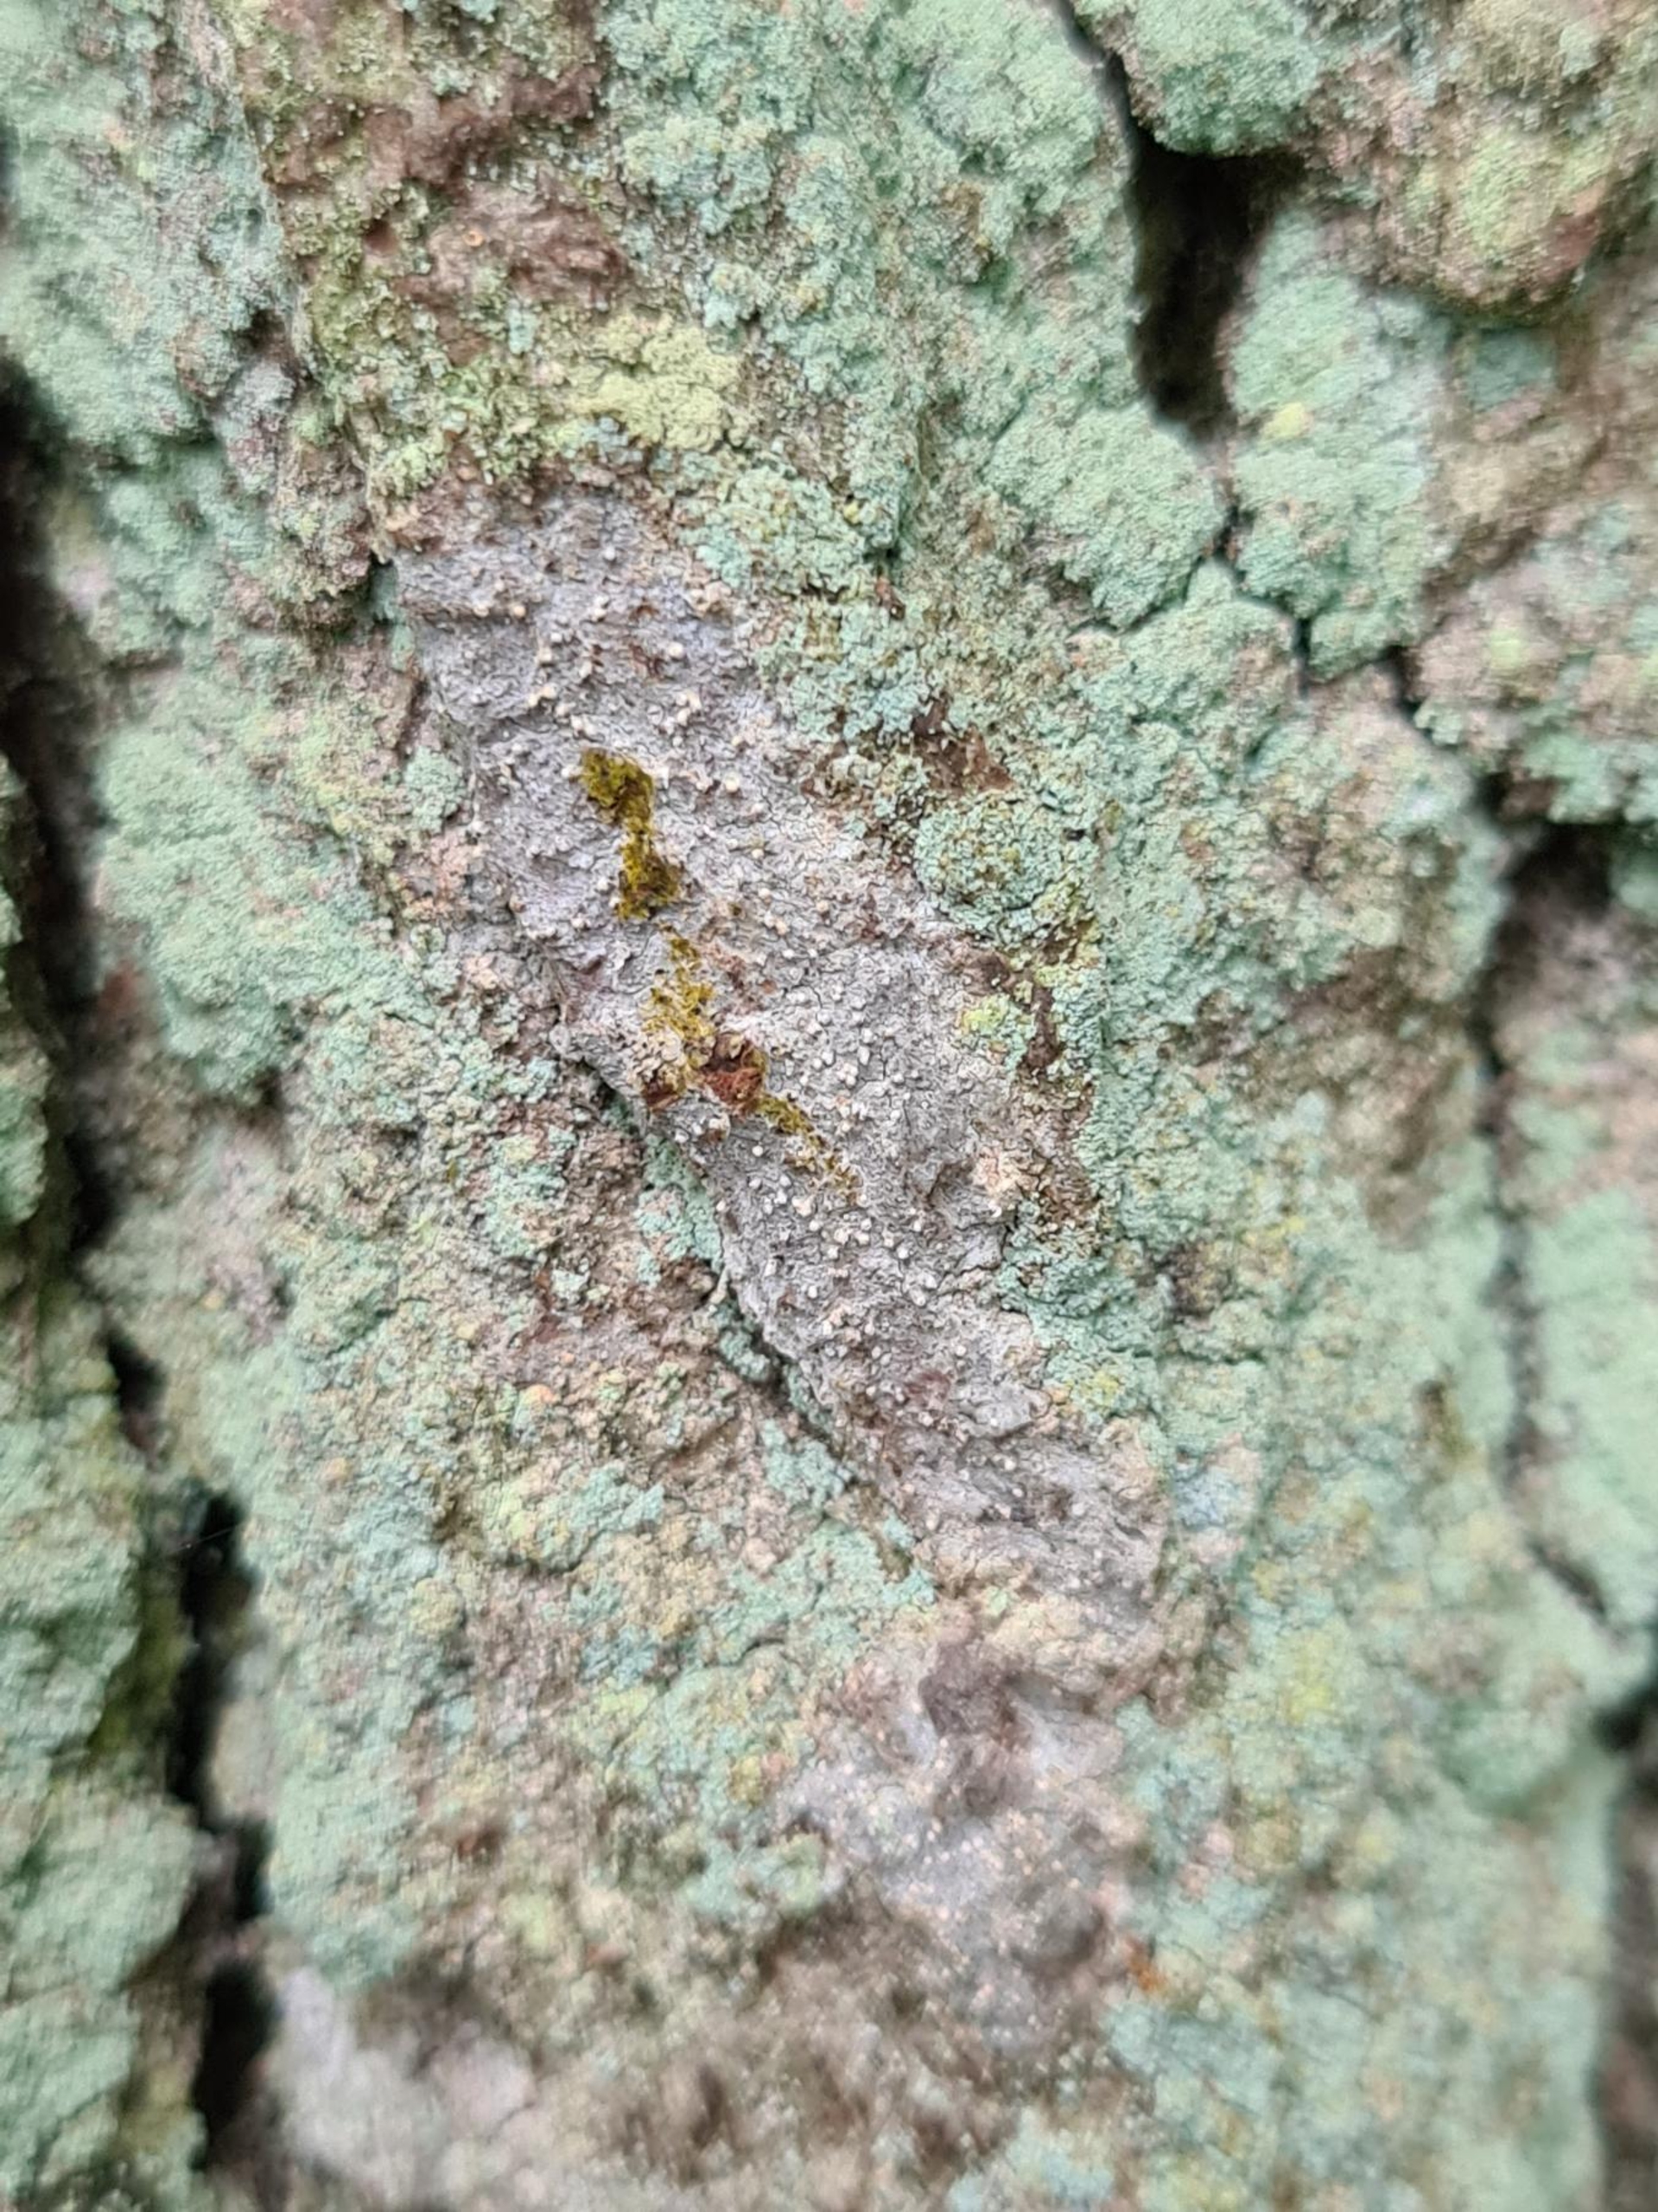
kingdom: Fungi
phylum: Ascomycota
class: Arthoniomycetes
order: Arthoniales
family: Roccellaceae
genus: Lecanactis
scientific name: Lecanactis abietina
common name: Grå dugskivelav
